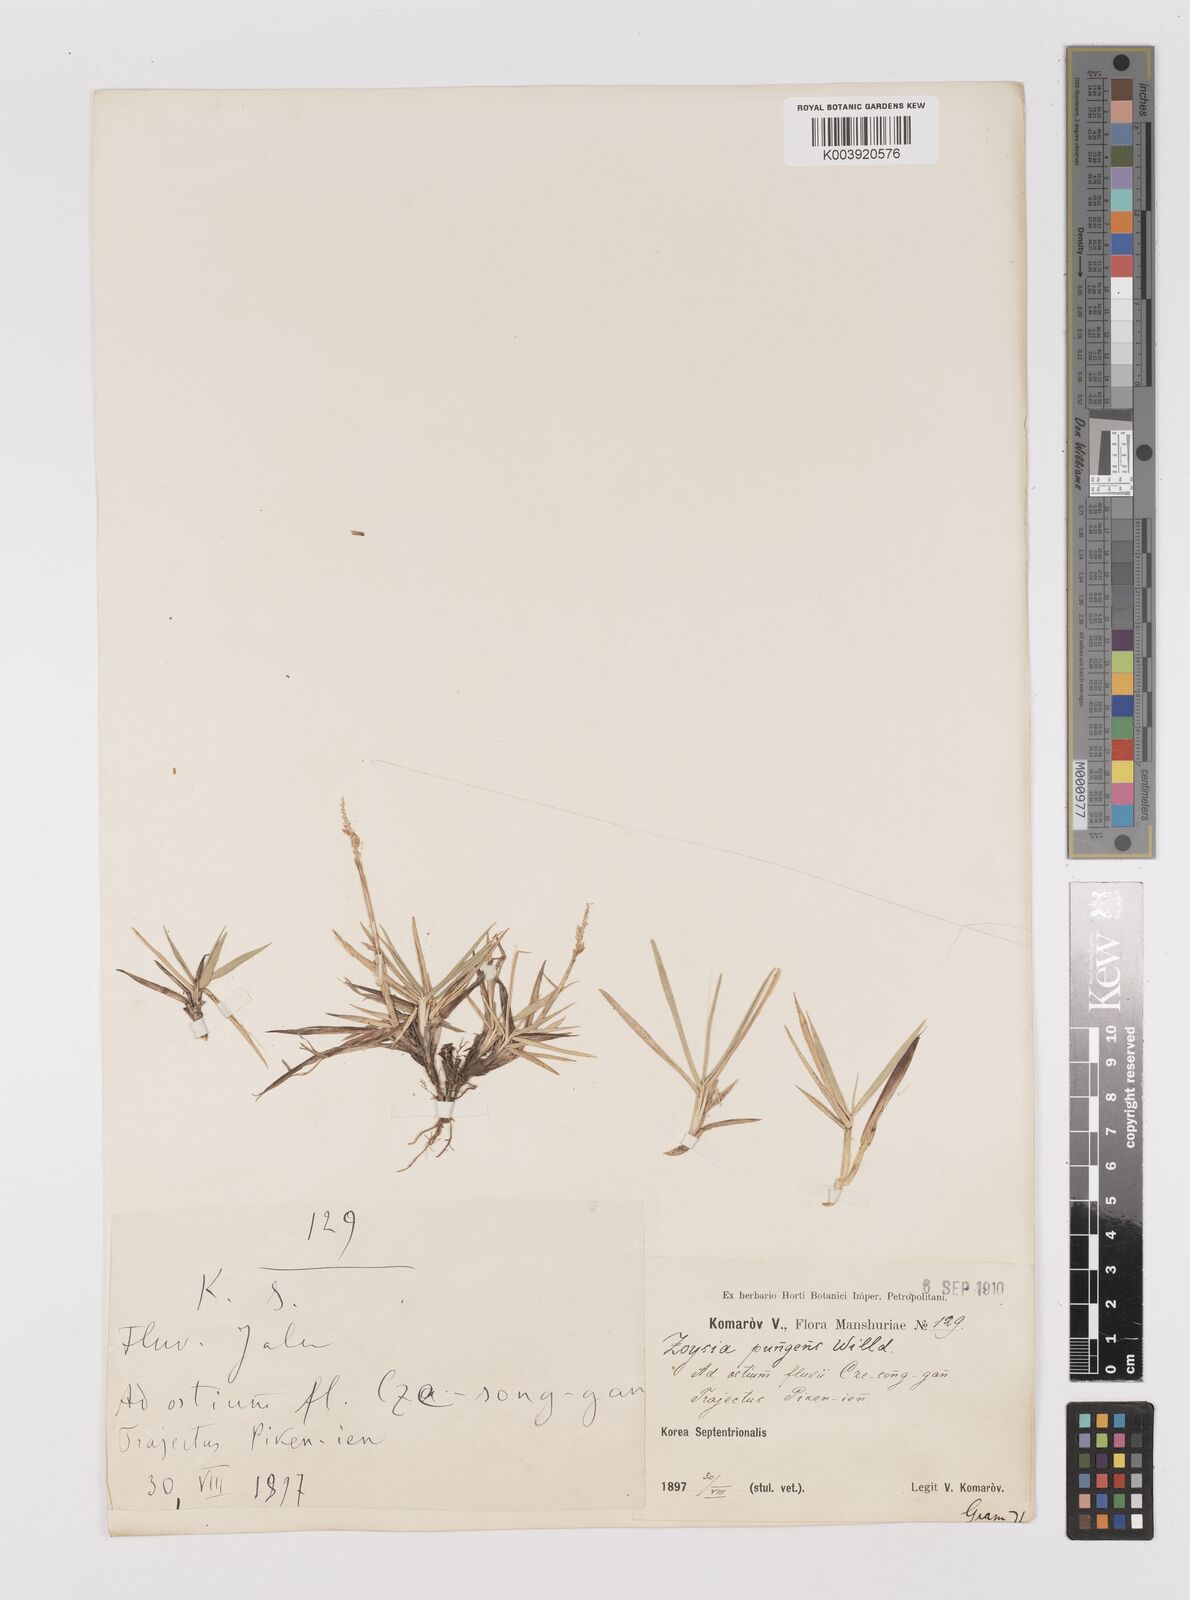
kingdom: Plantae
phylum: Tracheophyta
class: Liliopsida
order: Poales
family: Poaceae
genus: Zoysia
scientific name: Zoysia japonica
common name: Korean lawngrass
